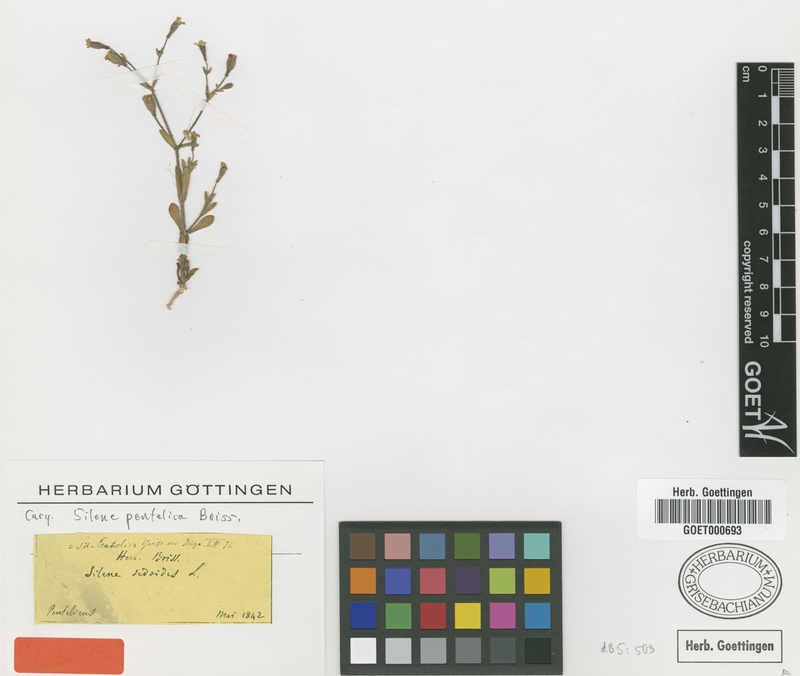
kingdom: Plantae
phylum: Tracheophyta
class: Magnoliopsida
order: Caryophyllales
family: Caryophyllaceae
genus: Silene
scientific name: Silene pentelica
